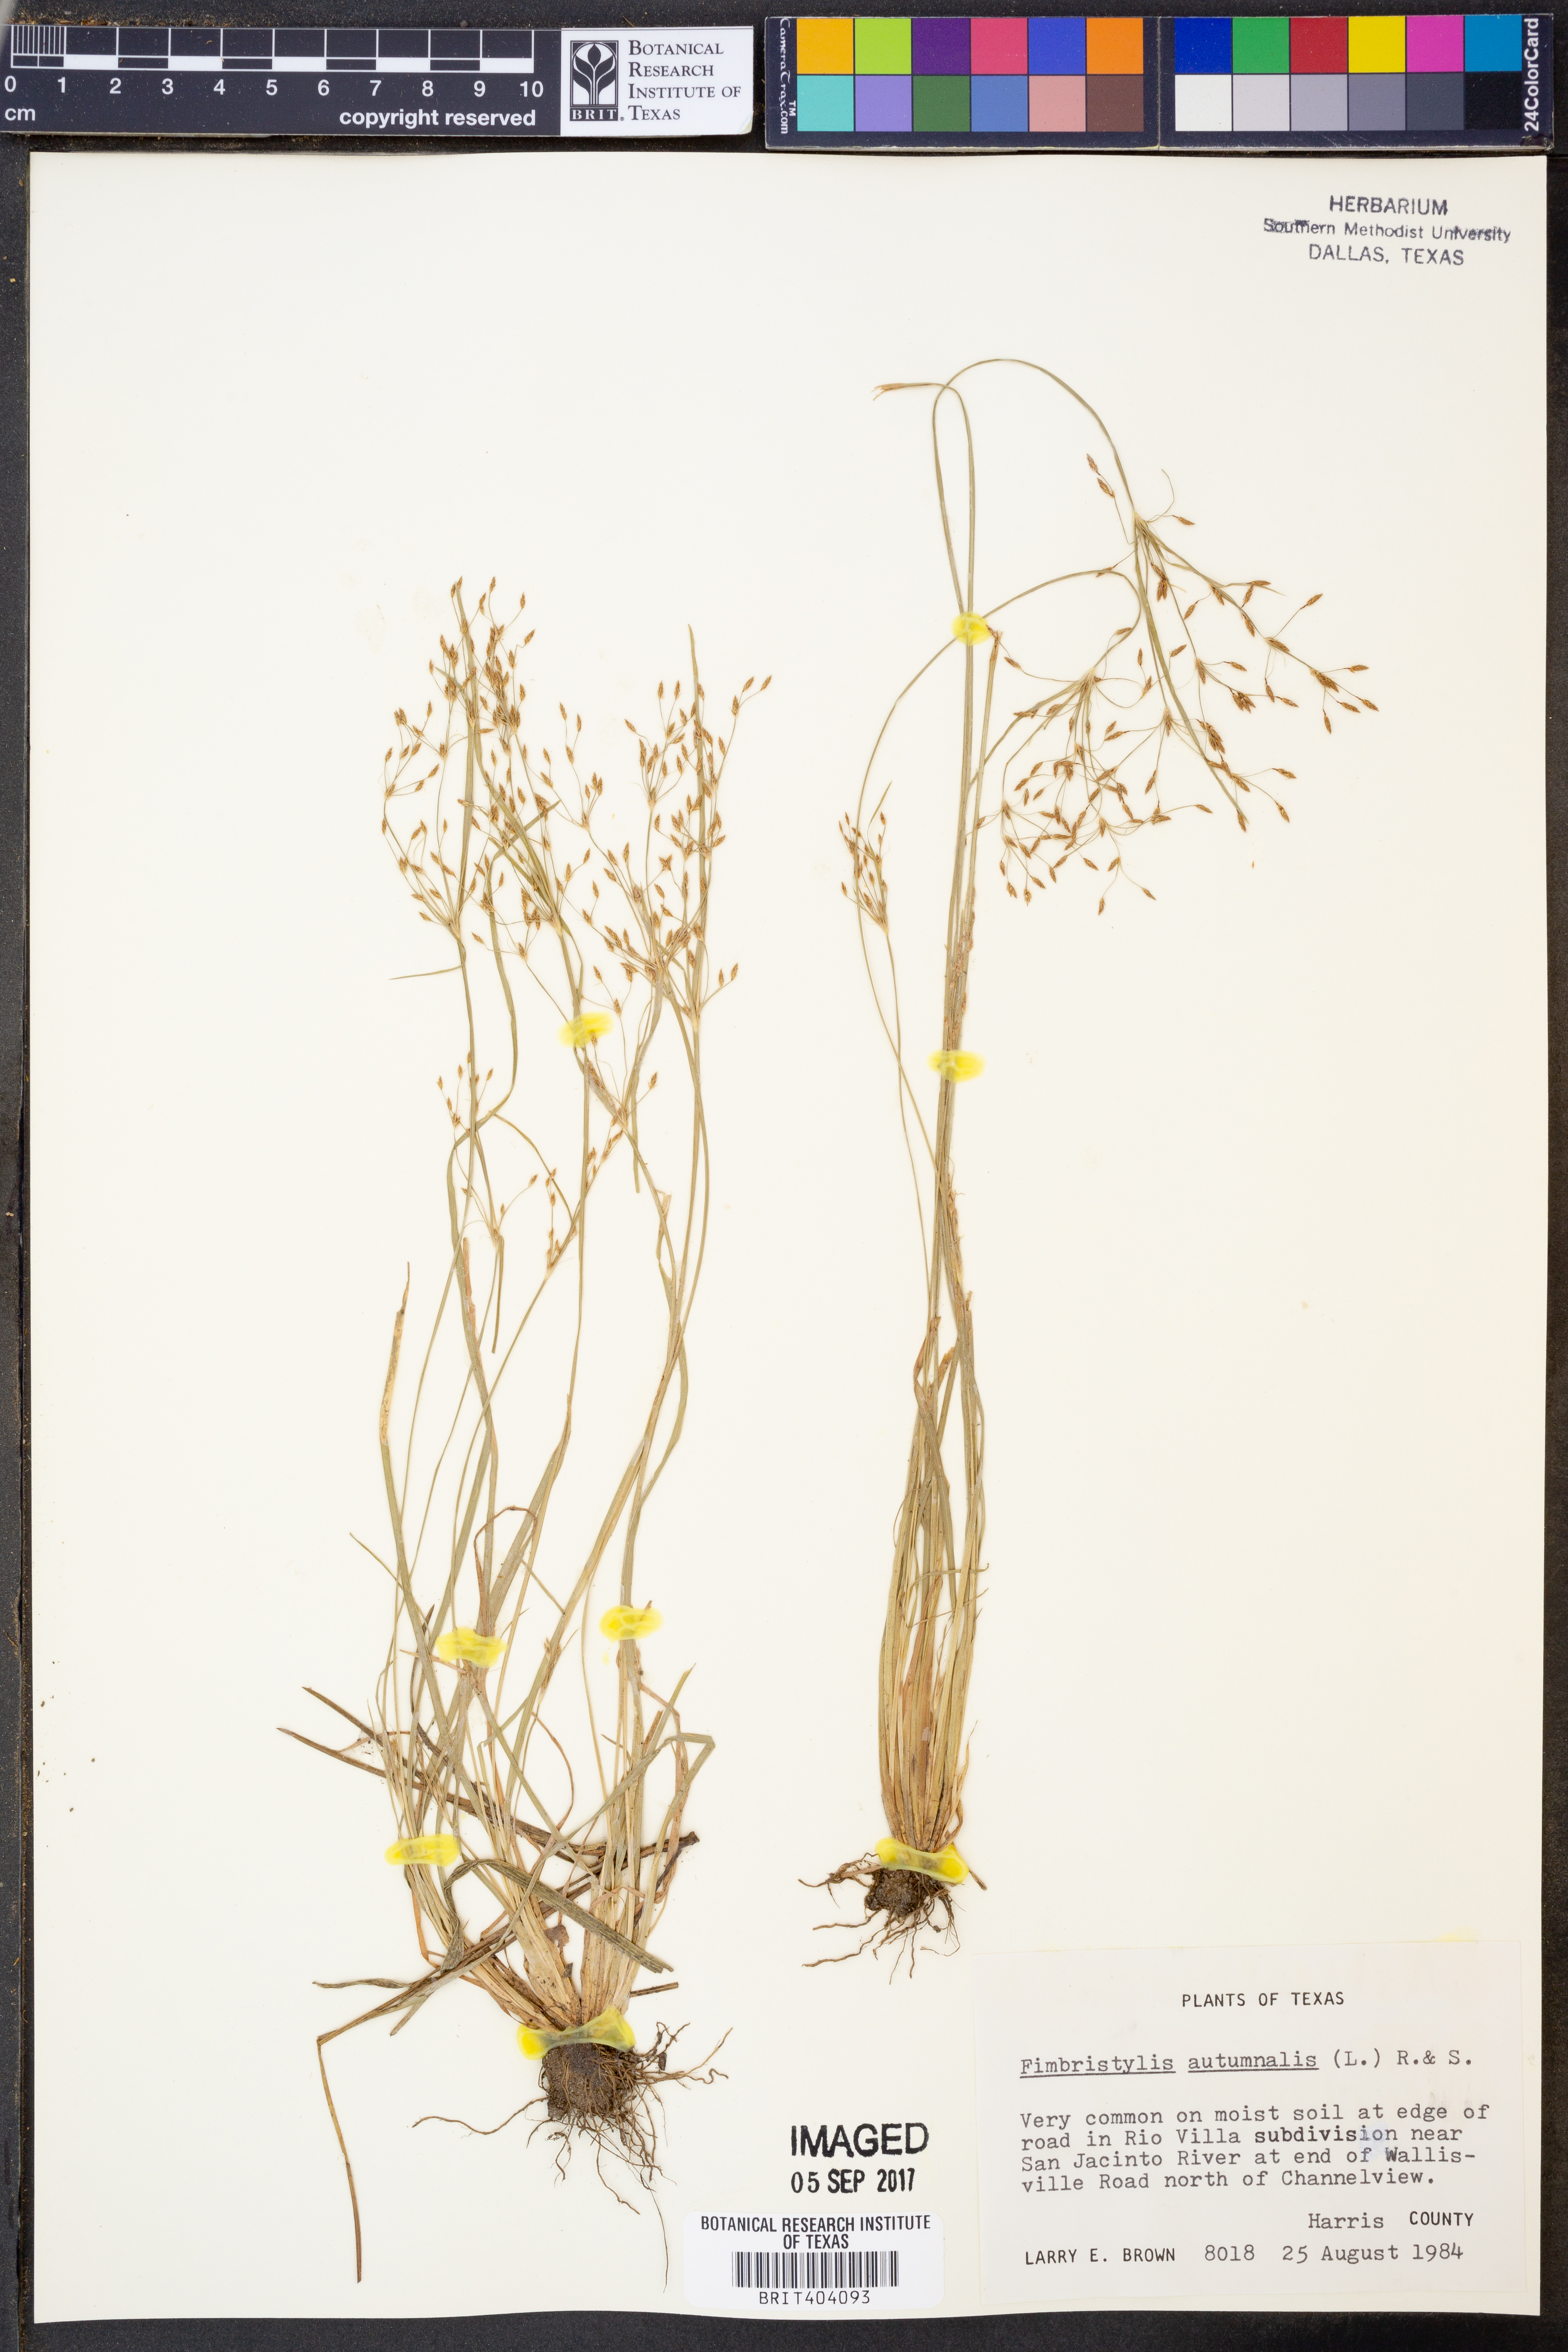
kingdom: Plantae
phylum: Tracheophyta
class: Liliopsida
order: Poales
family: Cyperaceae
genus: Fimbristylis
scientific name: Fimbristylis autumnalis
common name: Slender fimbristylis
